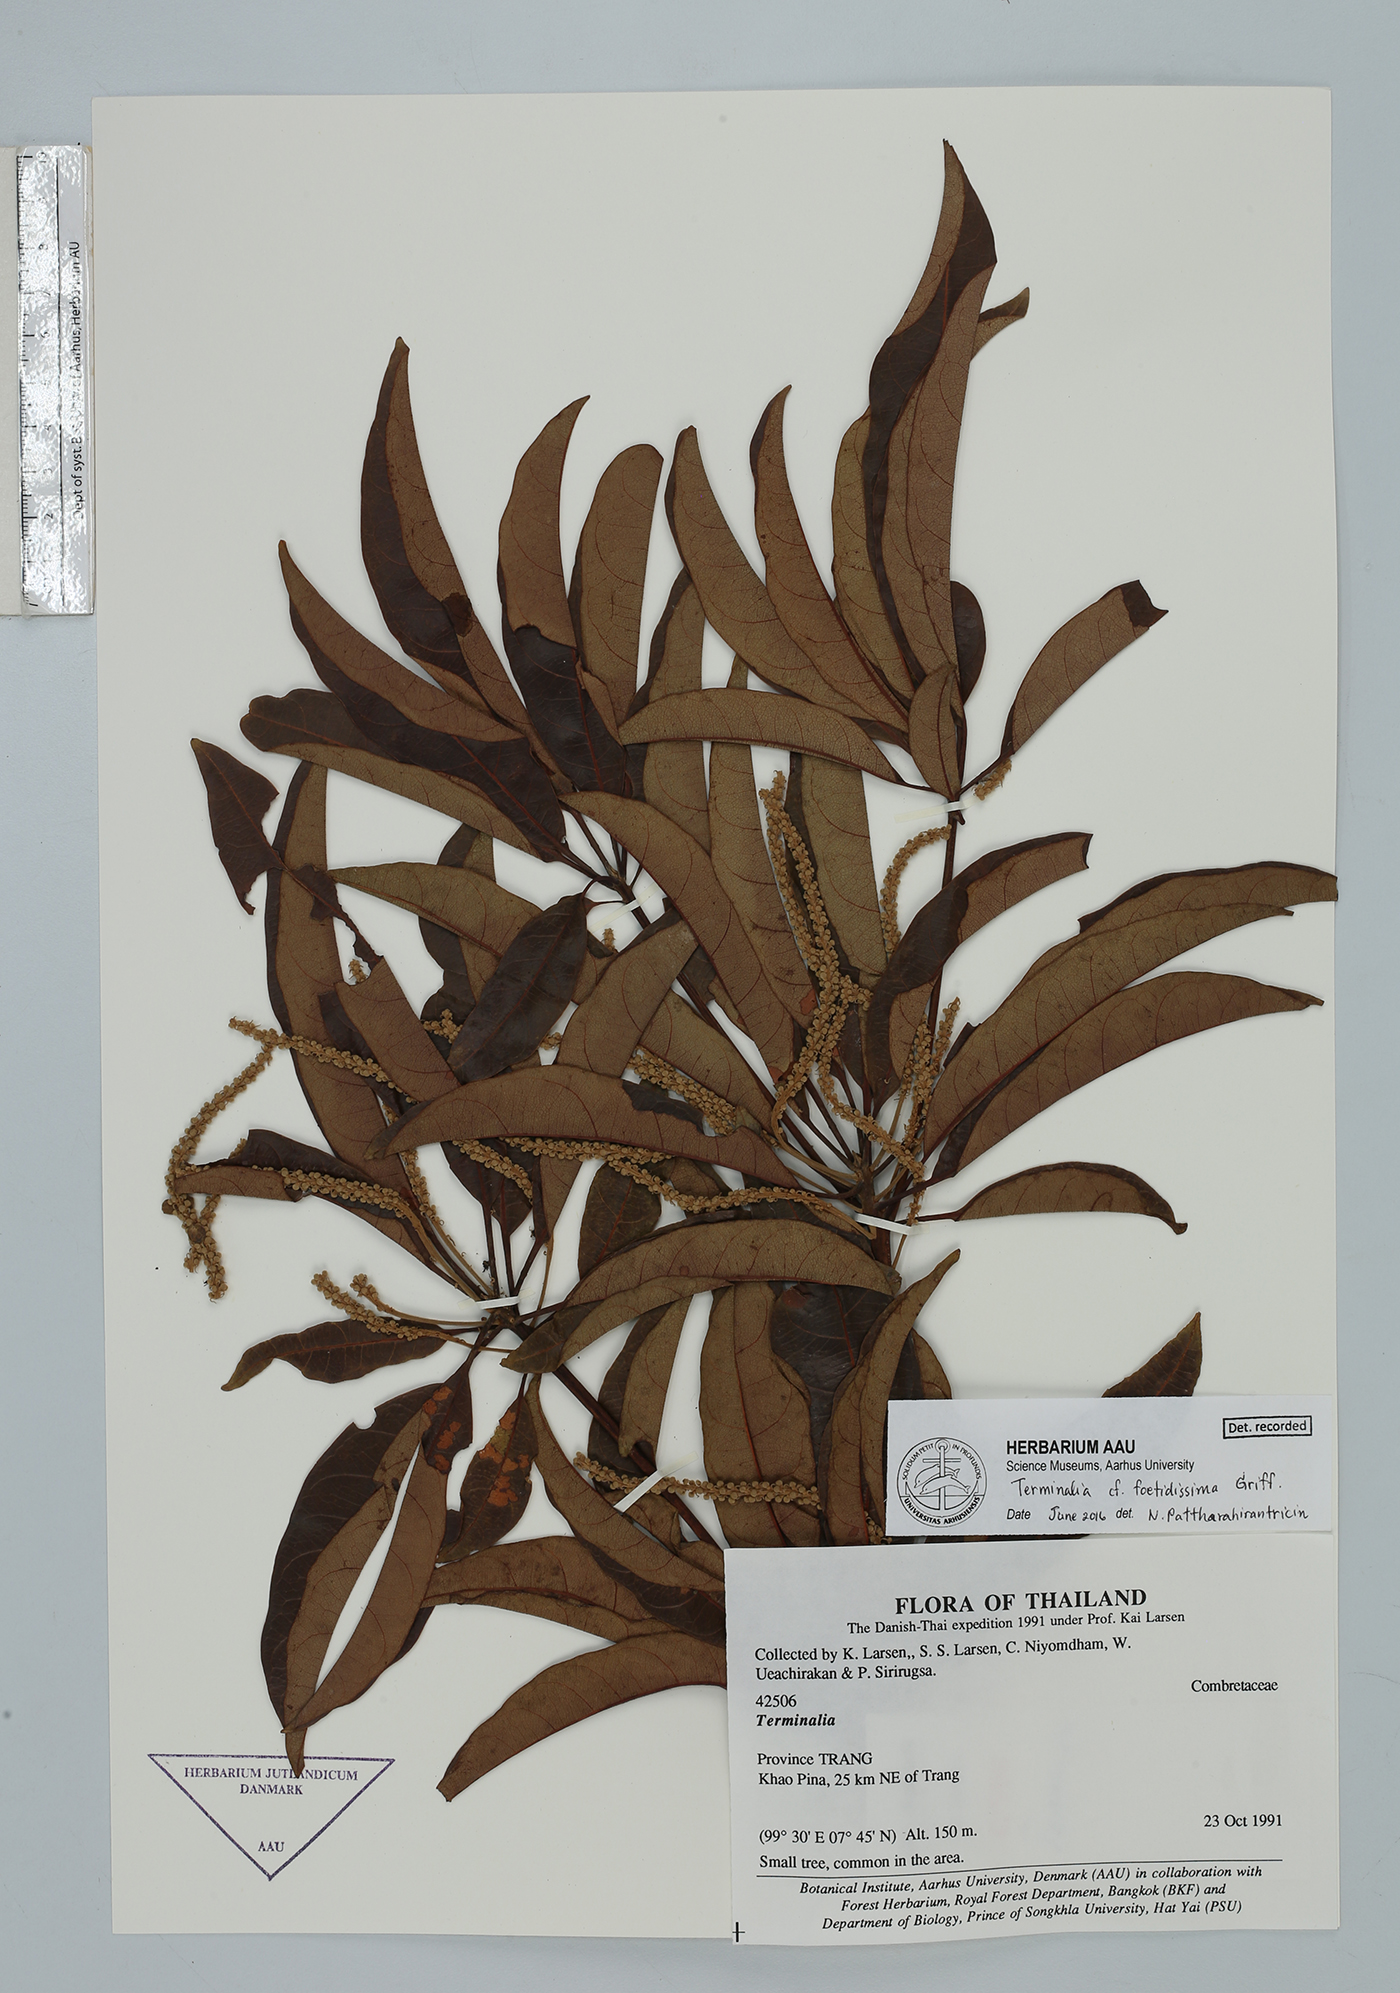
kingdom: Plantae
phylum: Tracheophyta
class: Magnoliopsida
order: Myrtales
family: Combretaceae
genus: Terminalia
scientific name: Terminalia foetidissima
